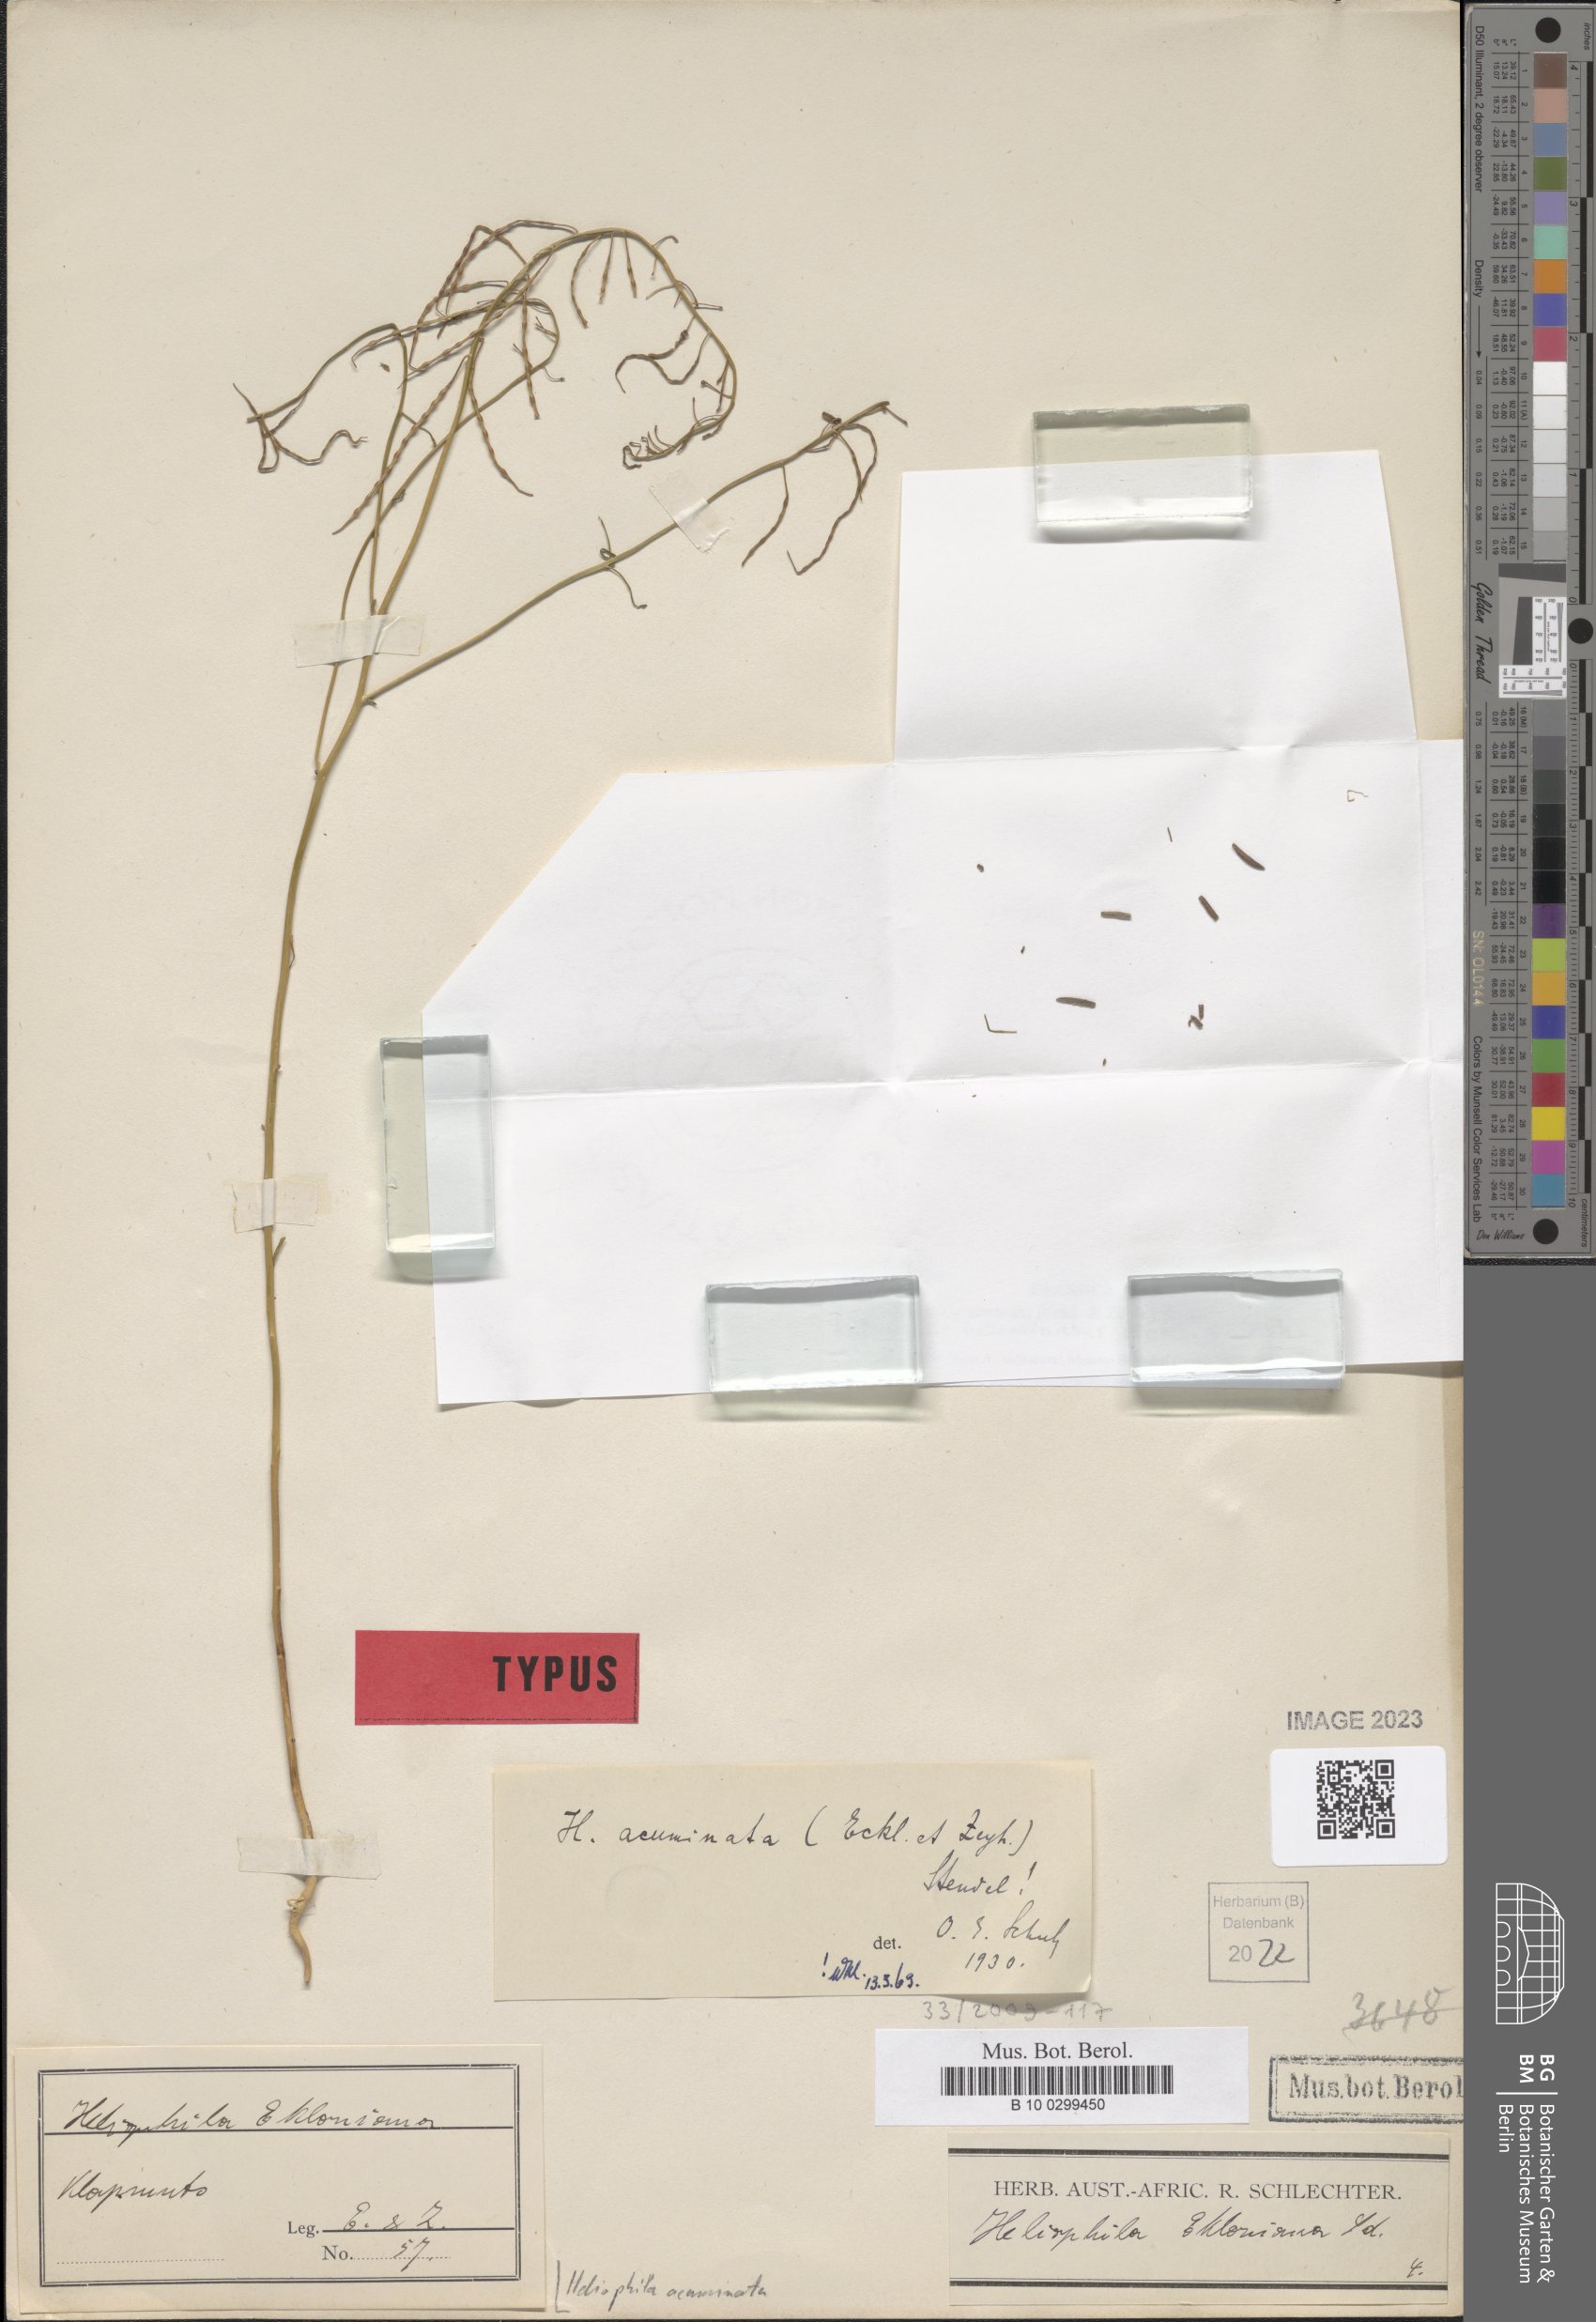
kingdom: Plantae
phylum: Tracheophyta
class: Magnoliopsida
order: Brassicales
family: Brassicaceae
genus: Heliophila
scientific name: Heliophila acuminata
